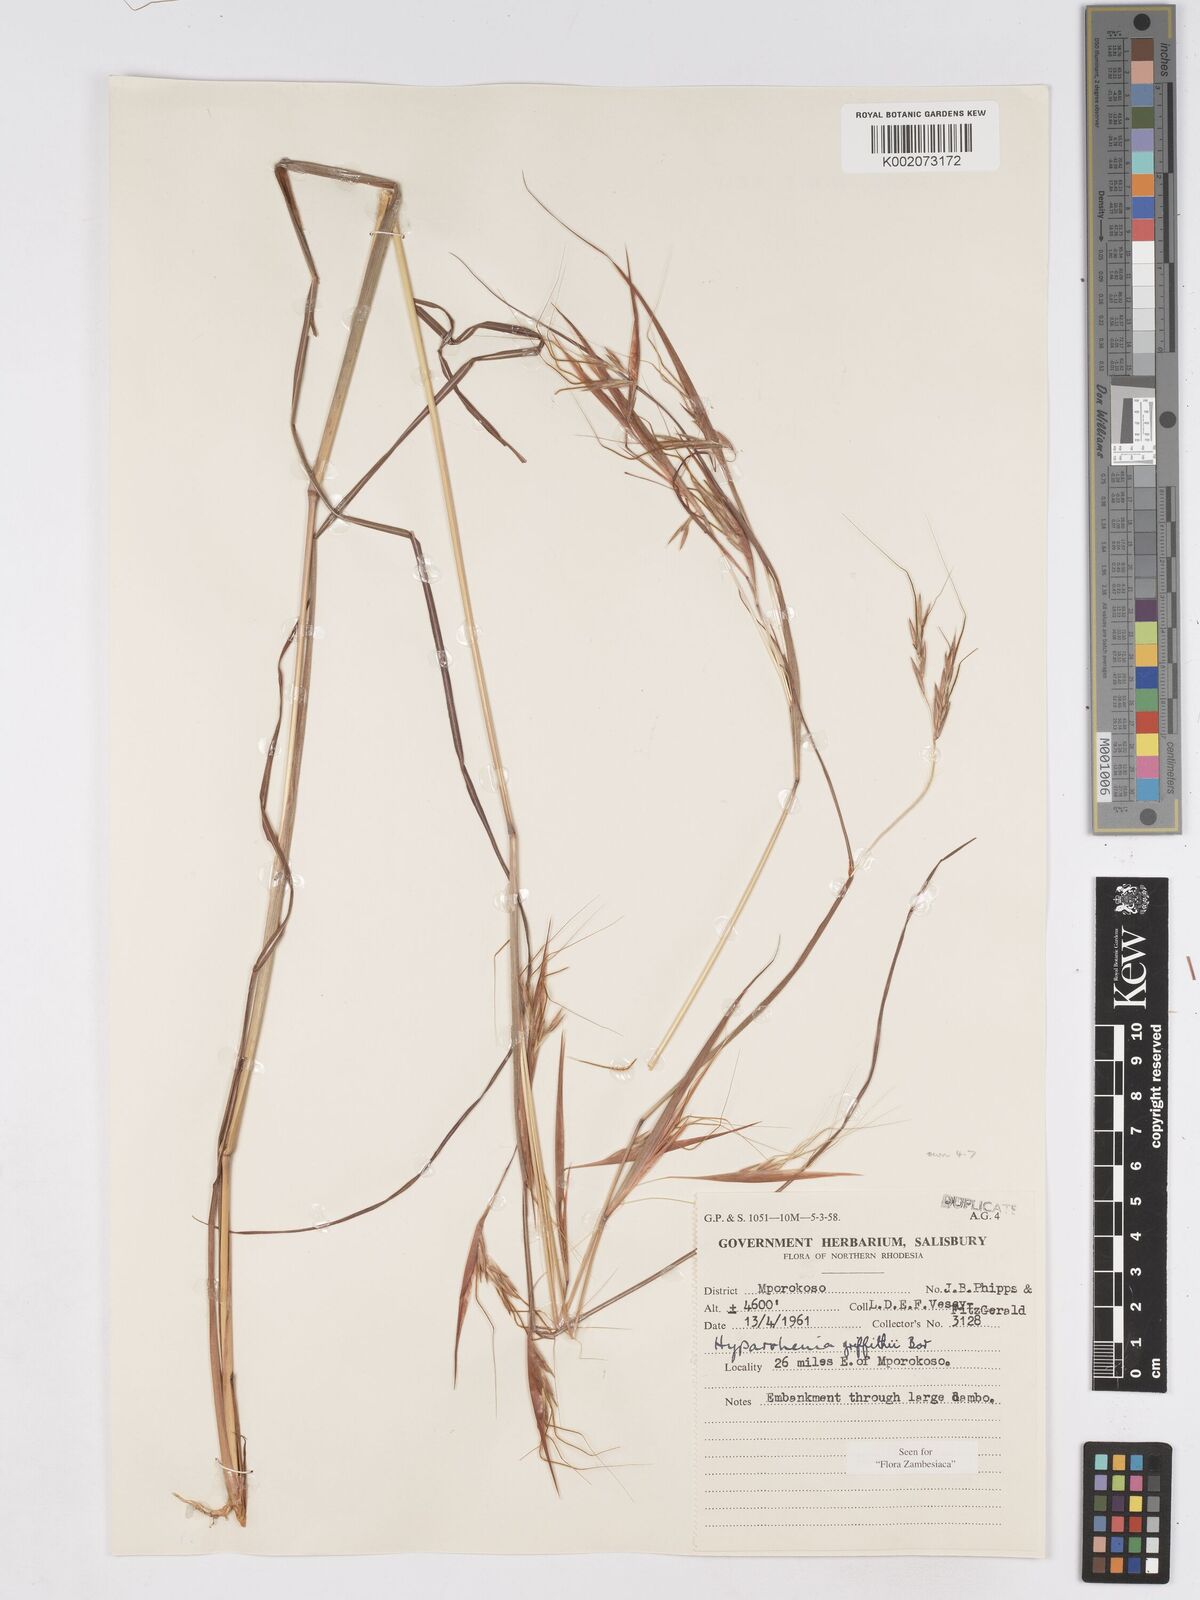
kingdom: Plantae
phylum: Tracheophyta
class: Liliopsida
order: Poales
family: Poaceae
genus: Hyparrhenia
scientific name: Hyparrhenia griffithii
